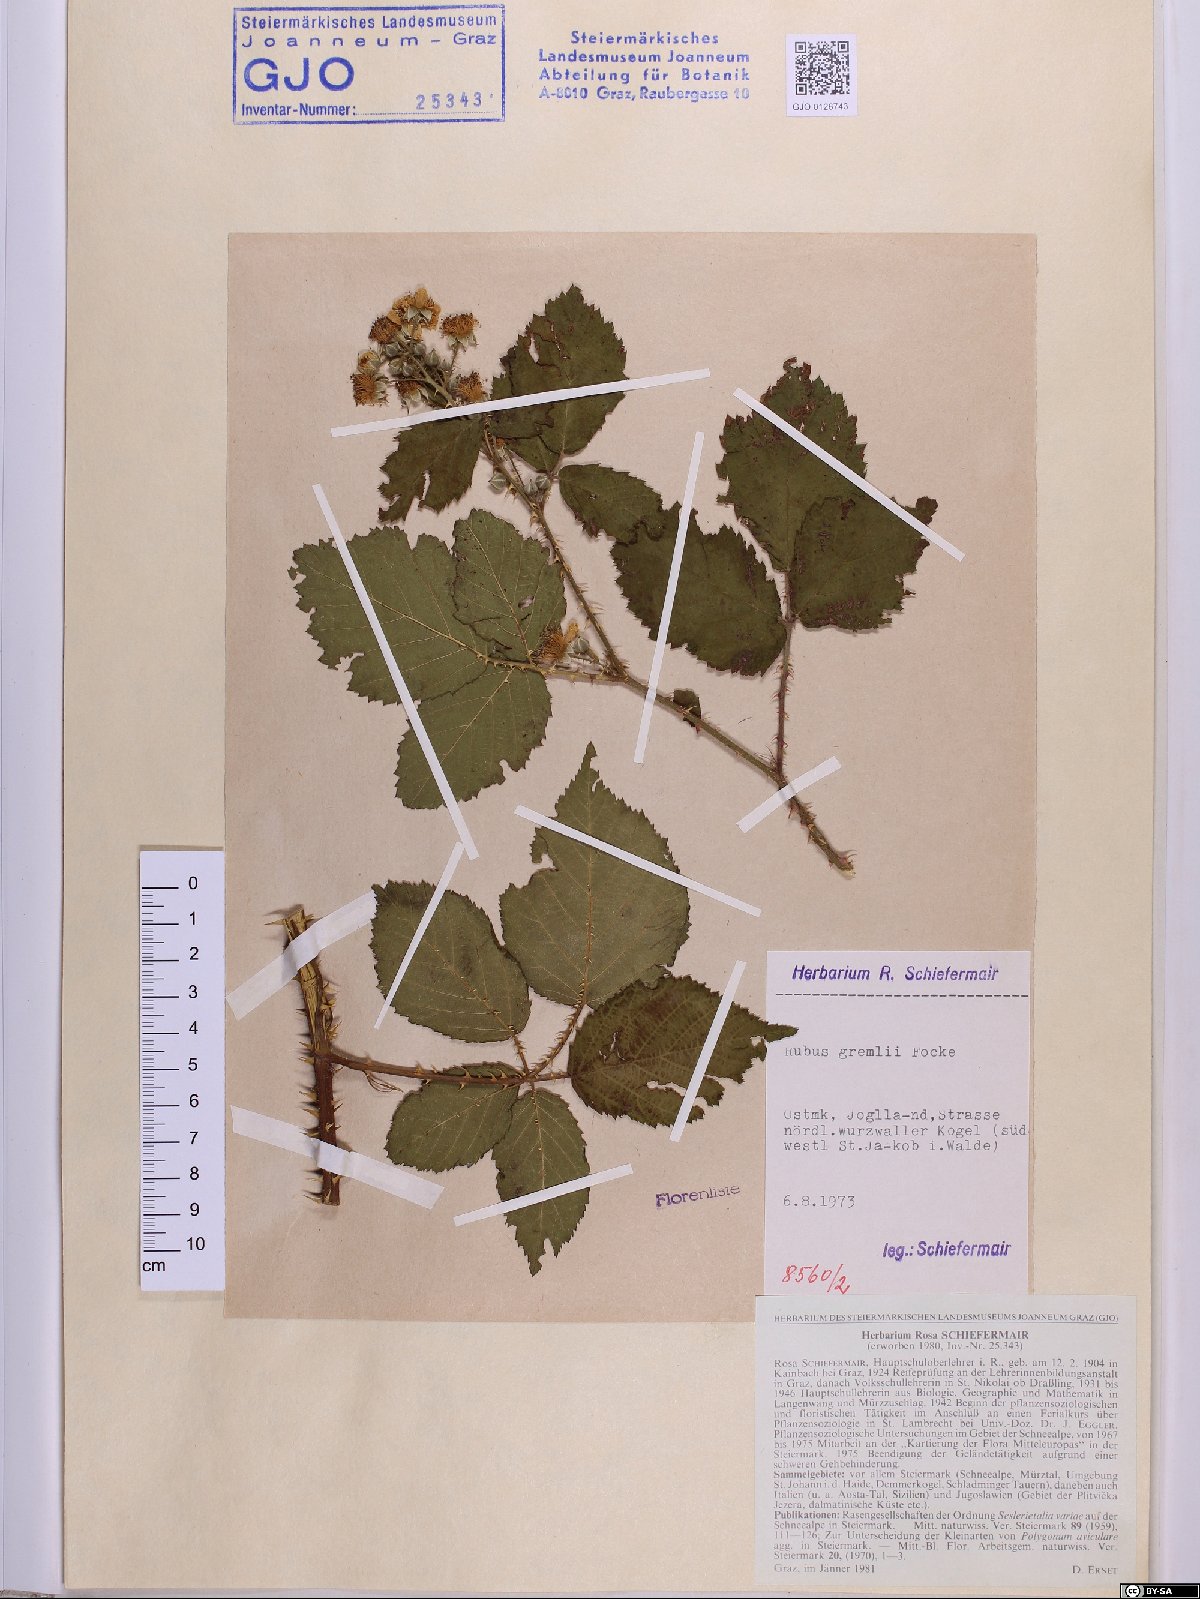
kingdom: Plantae
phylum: Tracheophyta
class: Magnoliopsida
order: Rosales
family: Rosaceae
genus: Rubus
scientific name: Rubus gremlii
